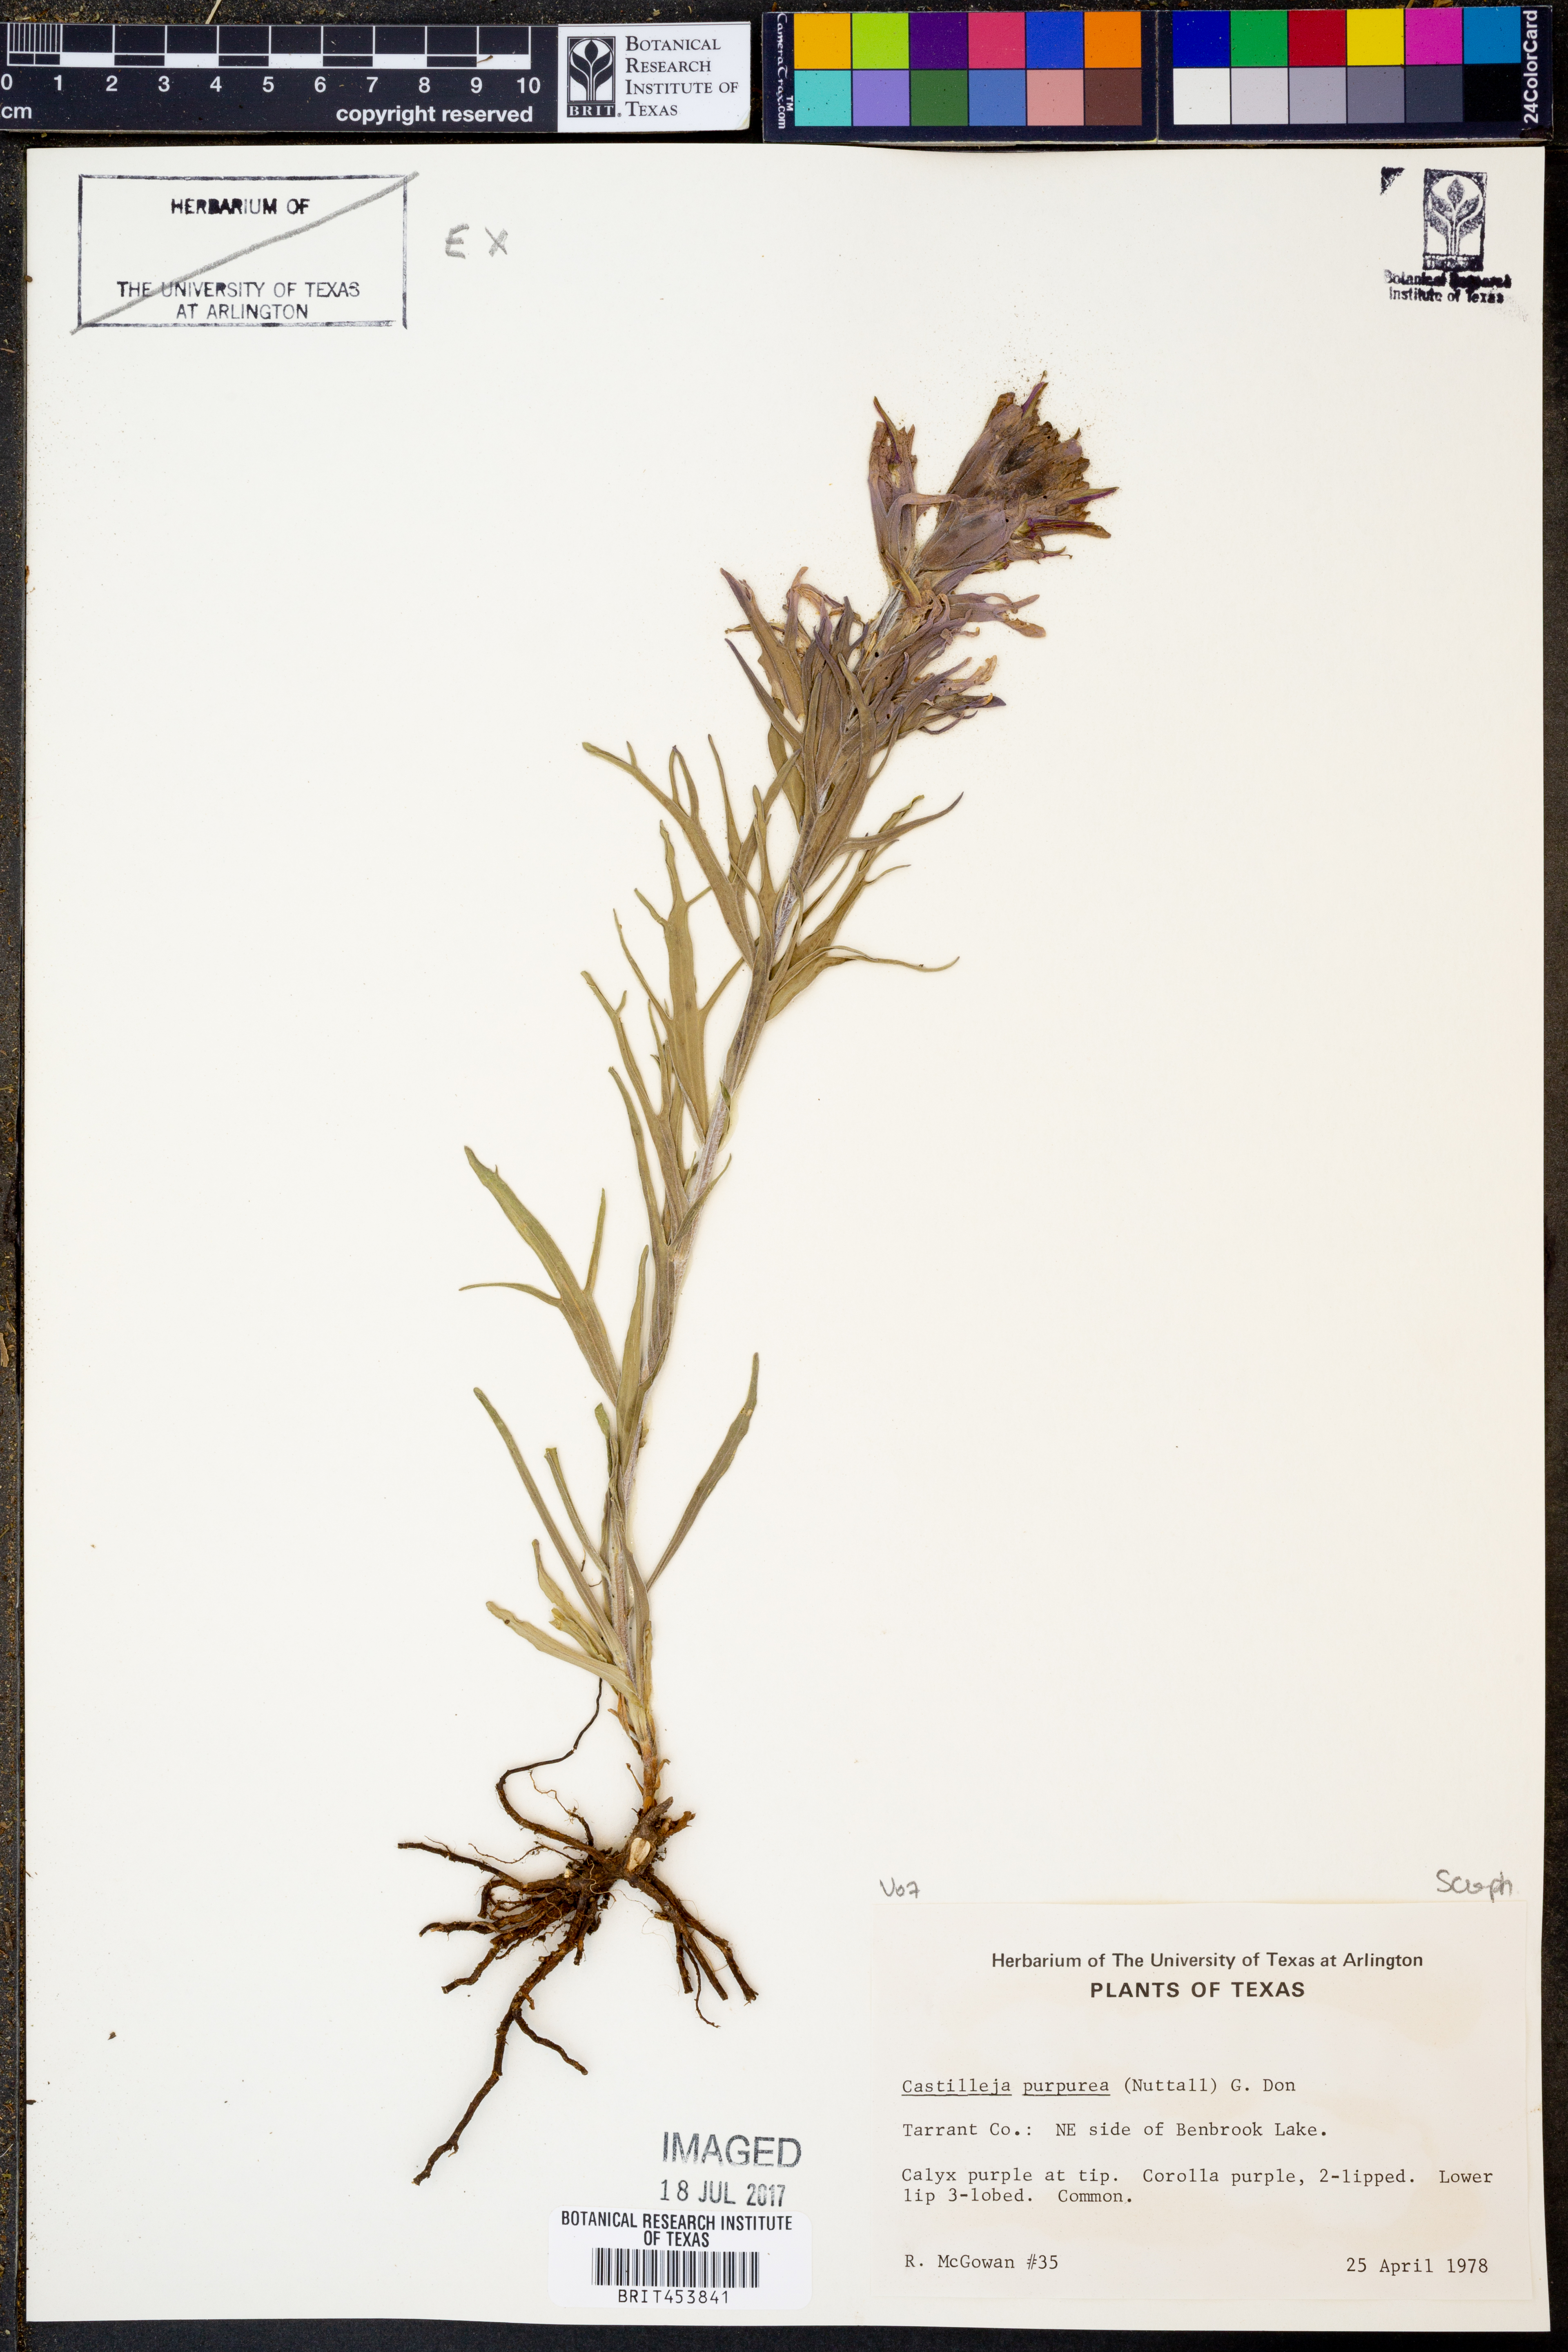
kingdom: Plantae
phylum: Tracheophyta
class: Magnoliopsida
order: Lamiales
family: Orobanchaceae
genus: Castilleja
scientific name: Castilleja purpurea
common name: Plains paintbrush
